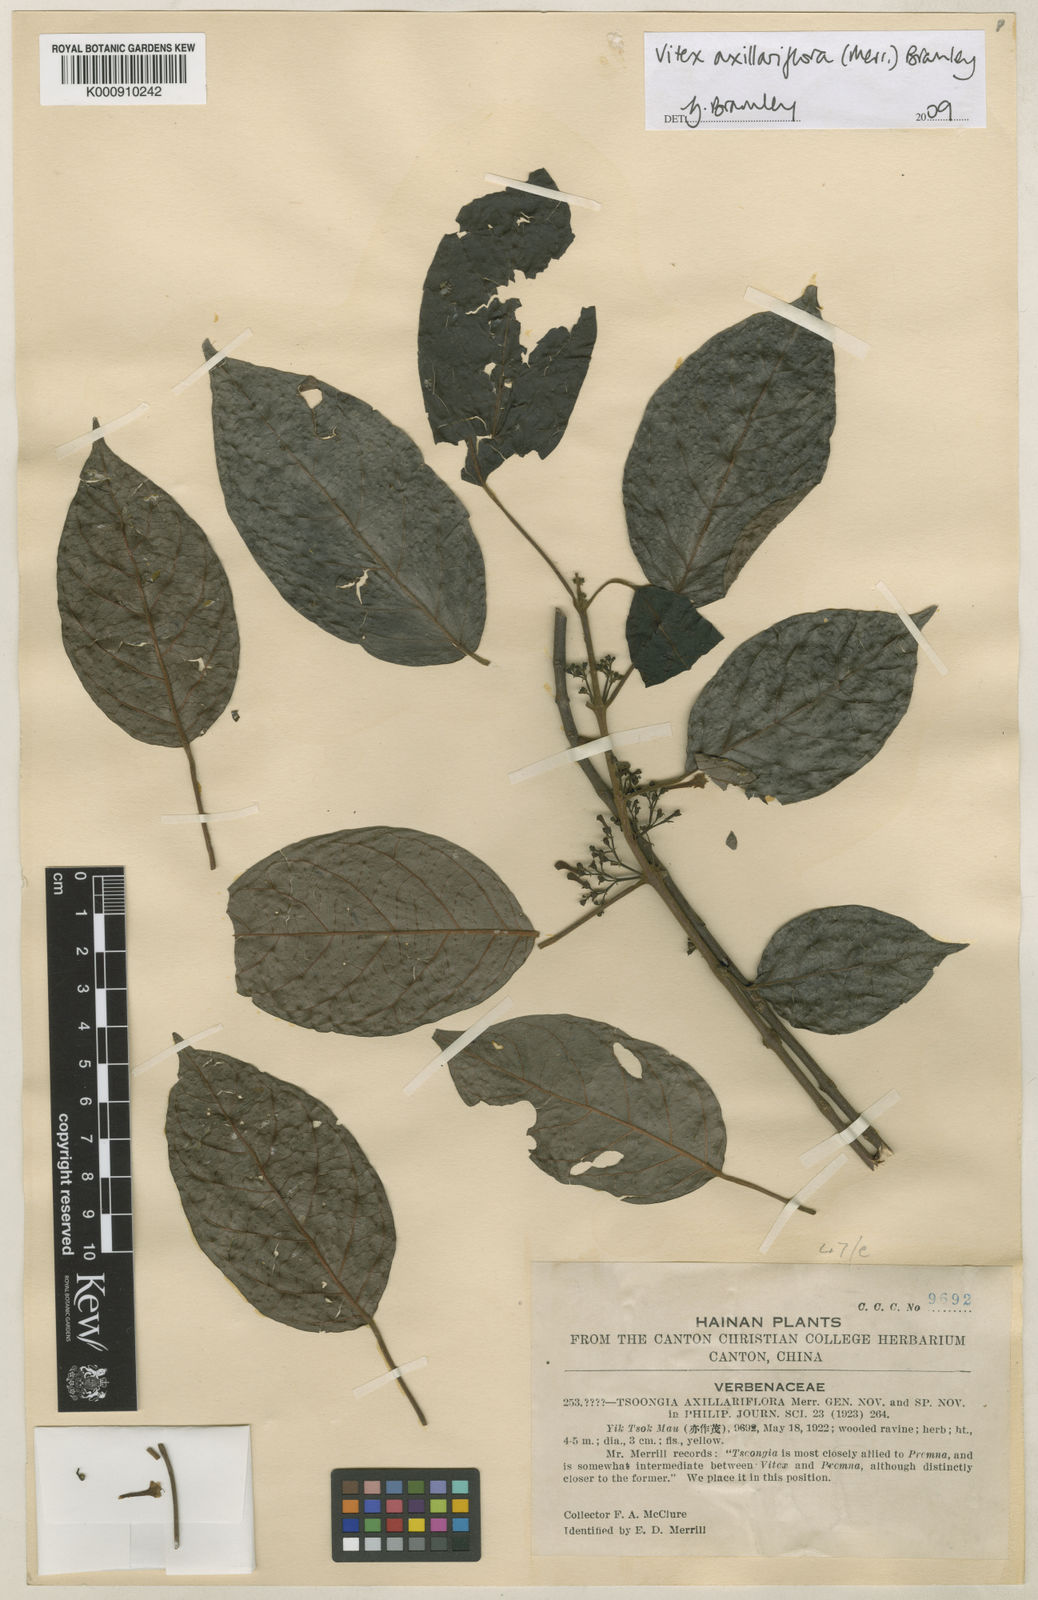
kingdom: Plantae
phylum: Tracheophyta
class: Magnoliopsida
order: Lamiales
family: Lamiaceae
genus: Vitex
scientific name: Vitex axillariflora
